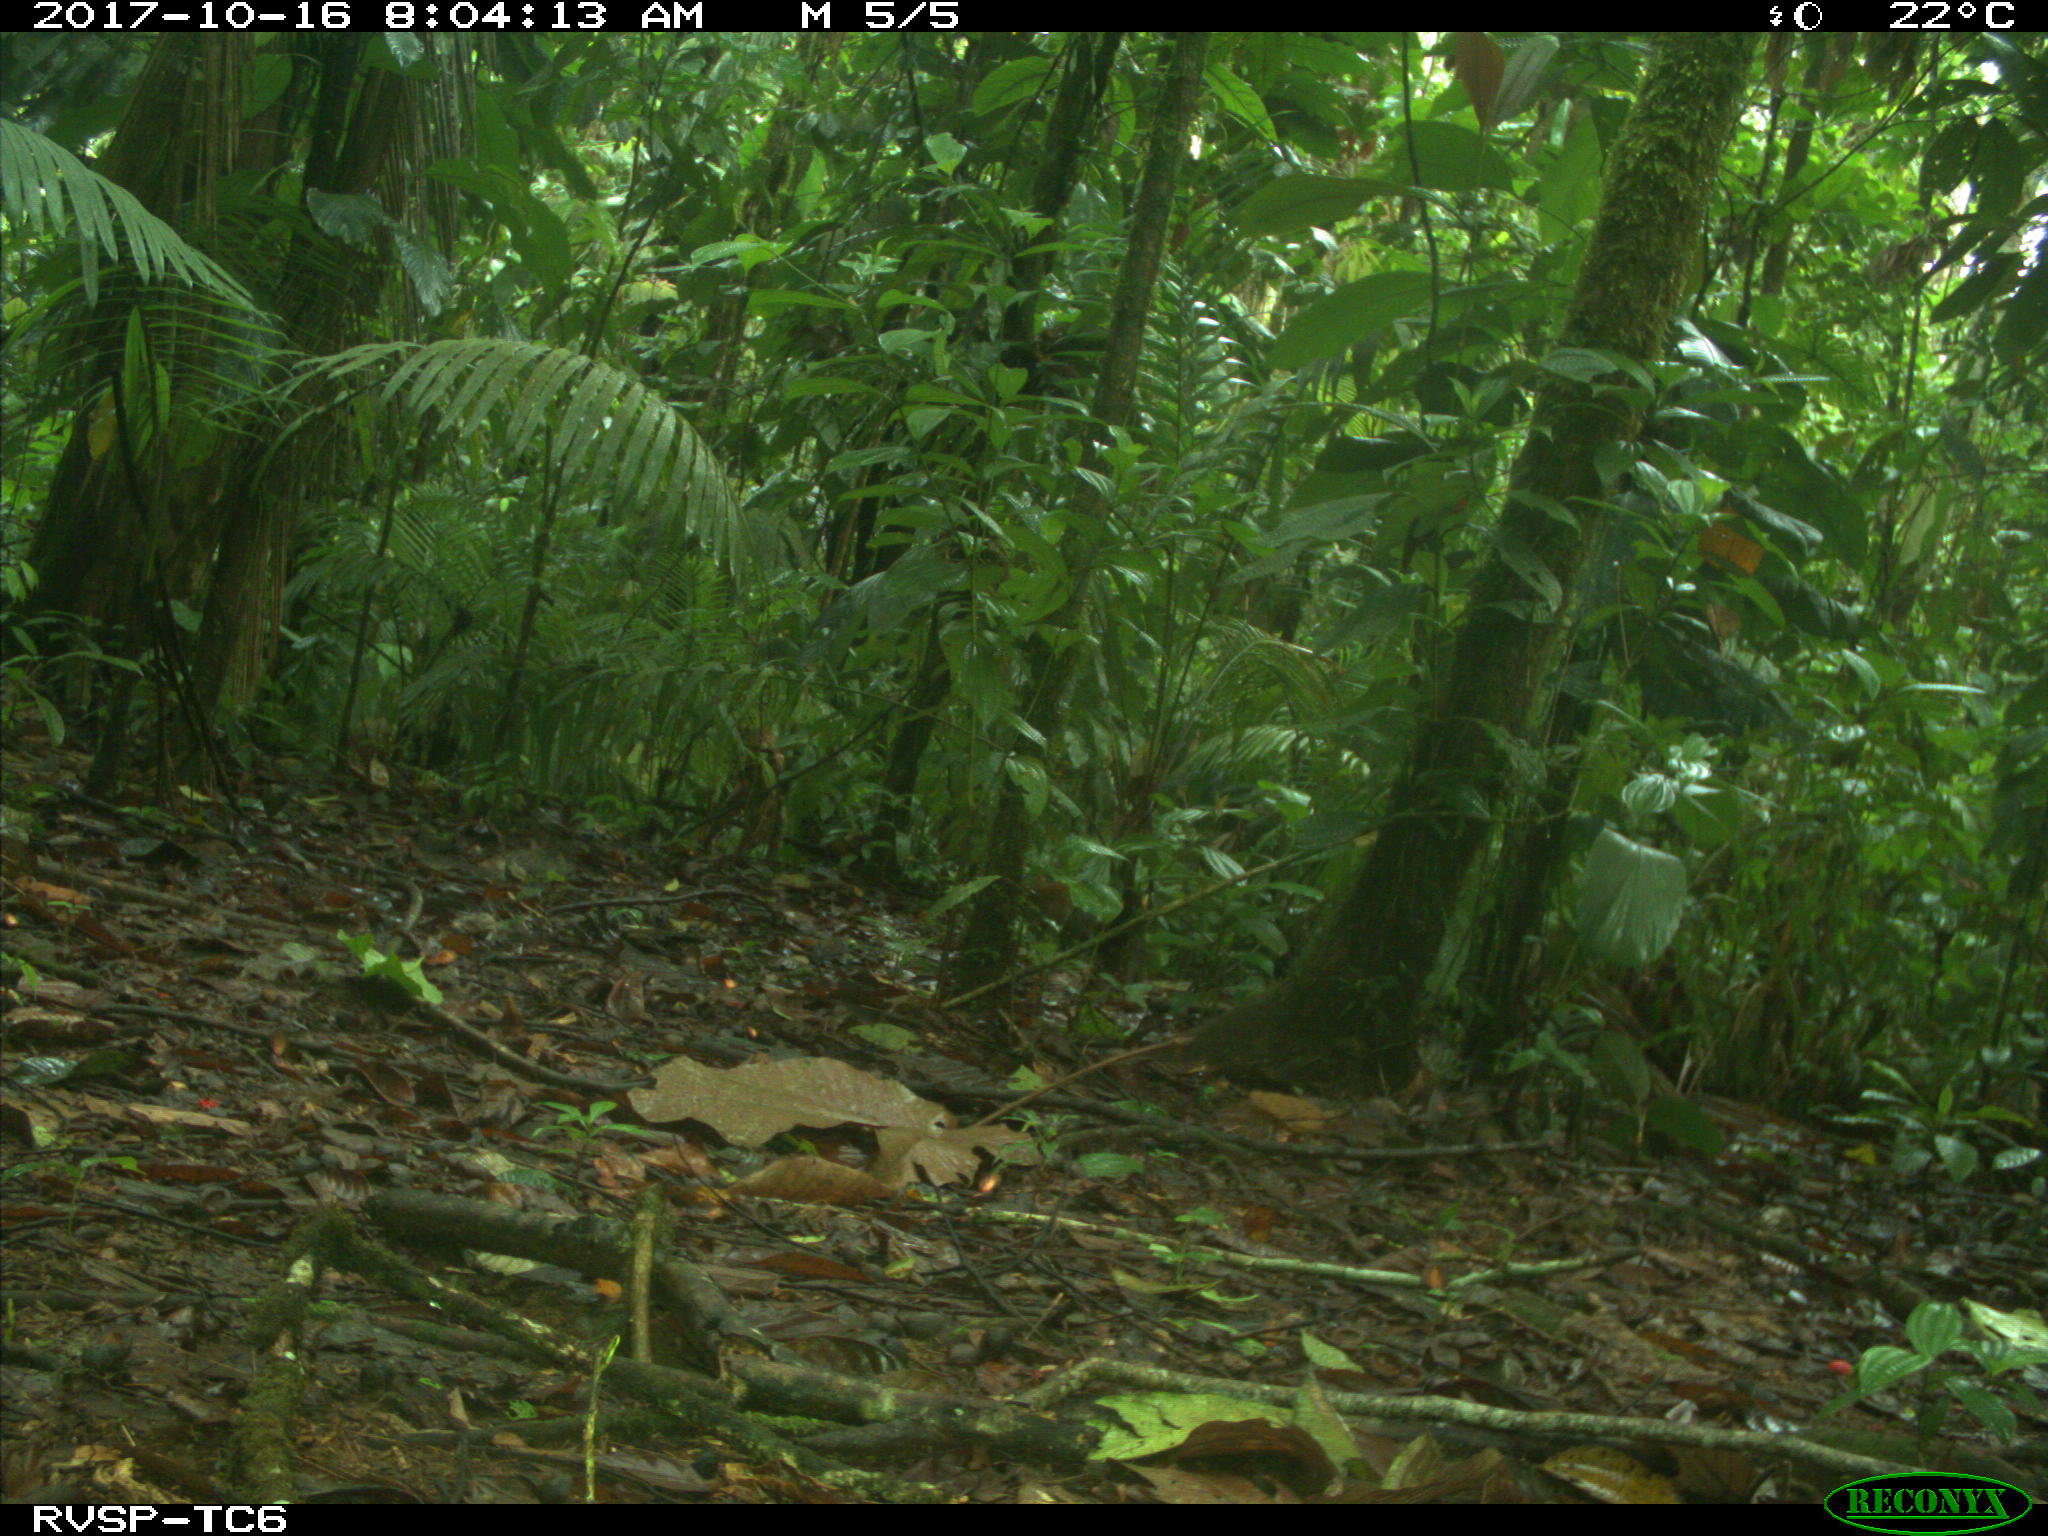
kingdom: Animalia
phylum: Chordata
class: Mammalia
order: Rodentia
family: Dasyproctidae
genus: Dasyprocta
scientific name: Dasyprocta punctata
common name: Central american agouti
